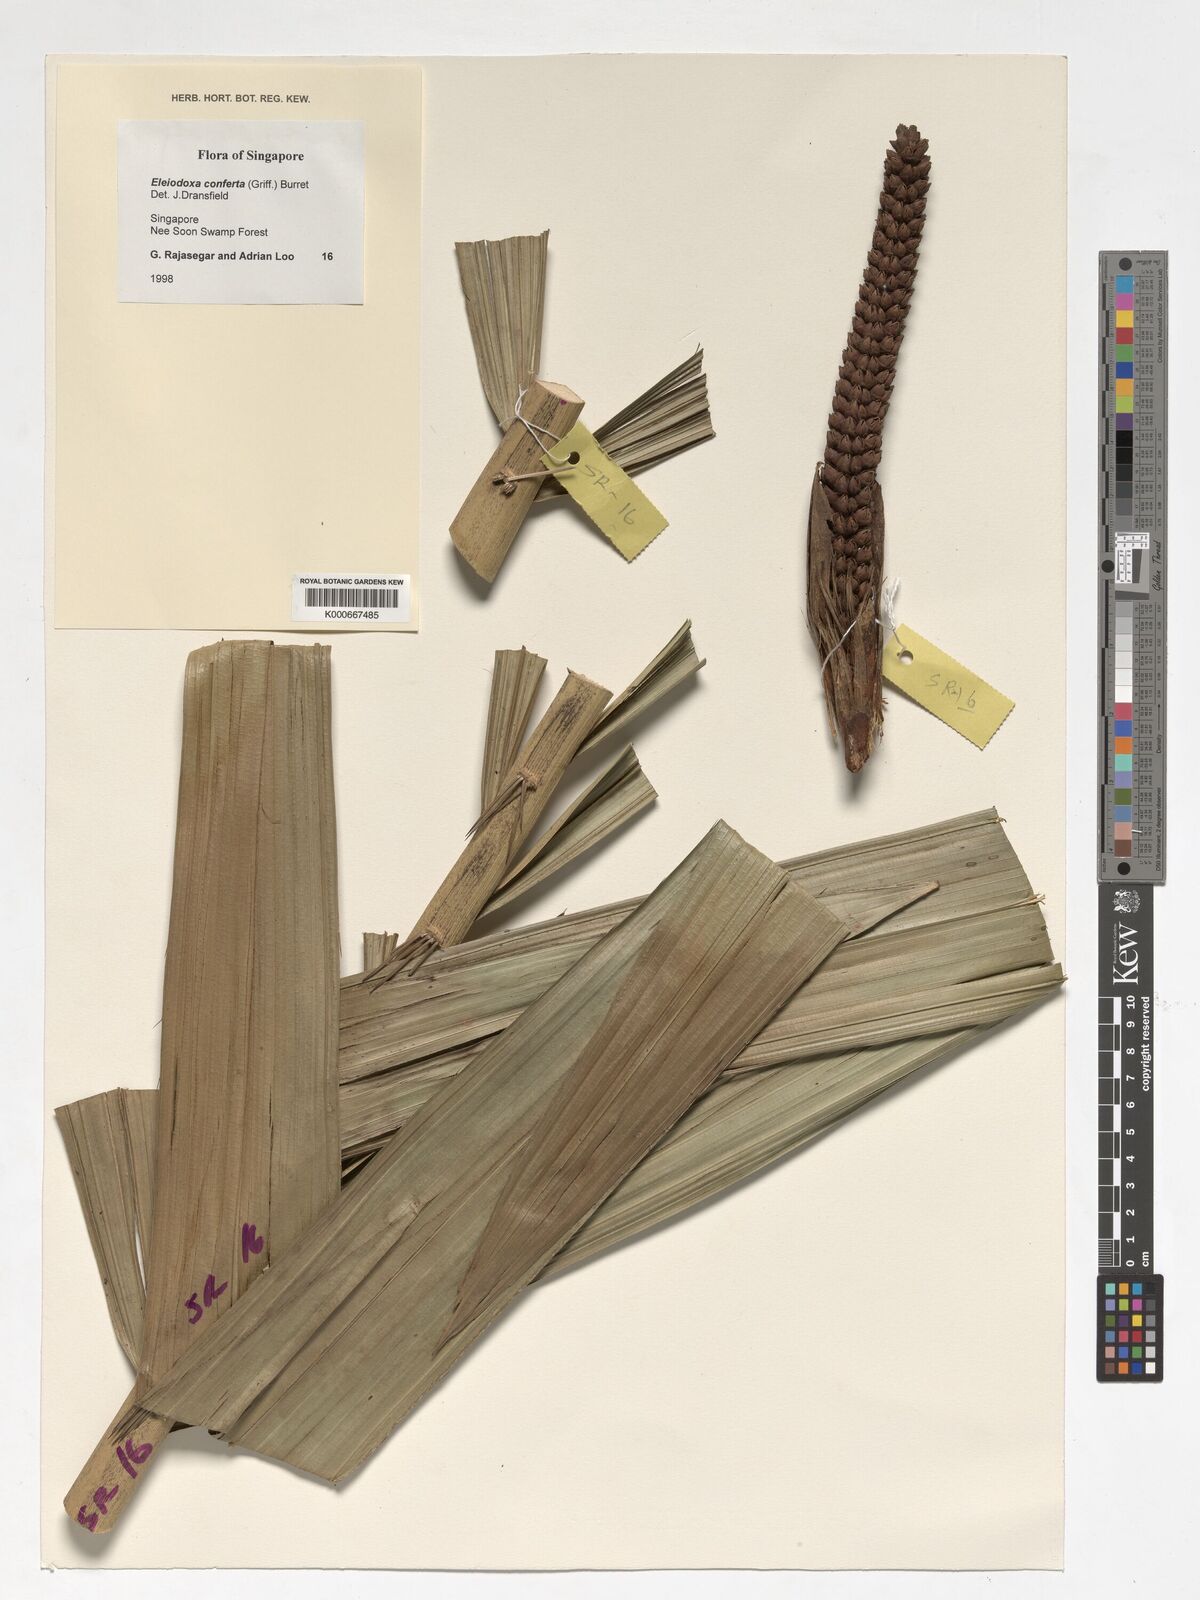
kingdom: Plantae
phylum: Tracheophyta
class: Liliopsida
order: Arecales
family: Arecaceae
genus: Eleiodoxa
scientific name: Eleiodoxa conferta
